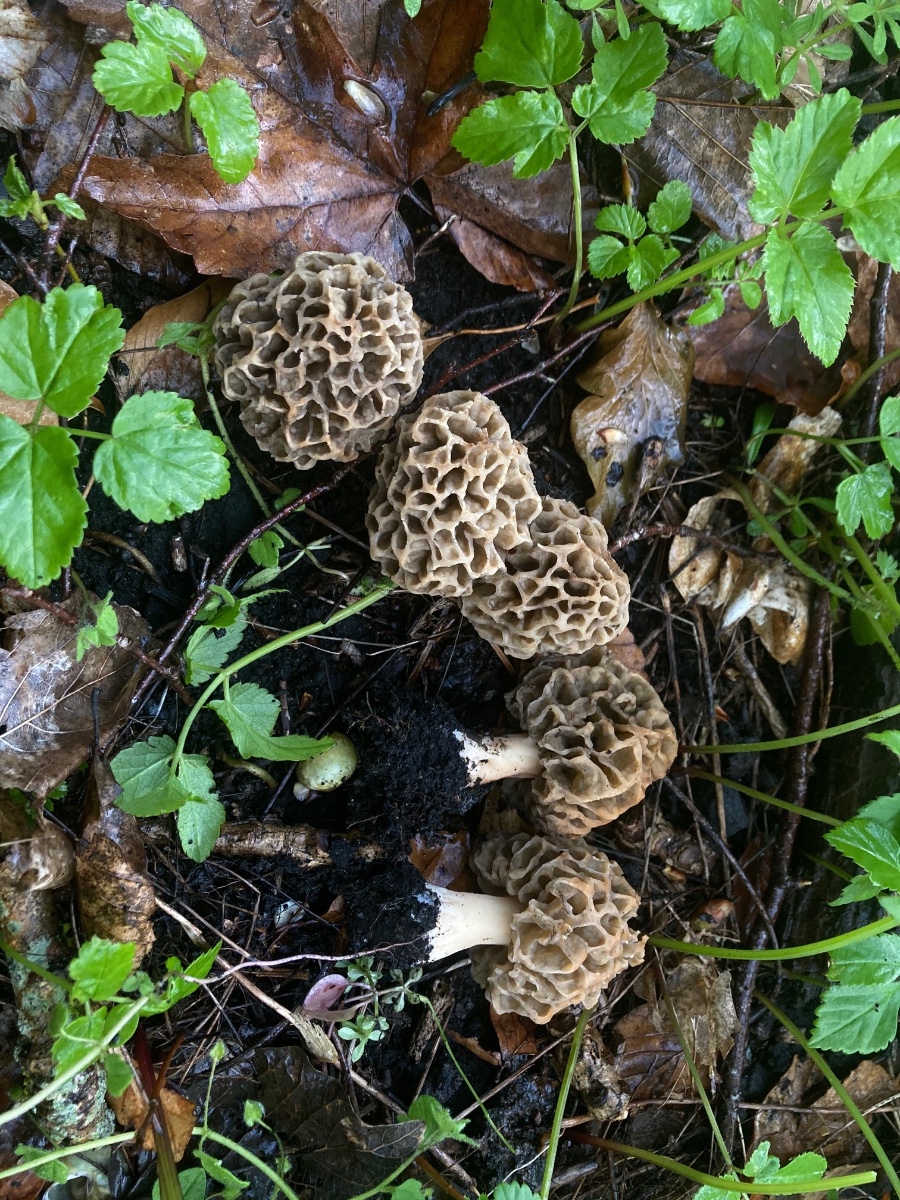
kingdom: Fungi
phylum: Ascomycota
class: Pezizomycetes
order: Pezizales
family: Morchellaceae
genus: Morchella
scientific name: Morchella esculenta
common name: almindelig morkel
